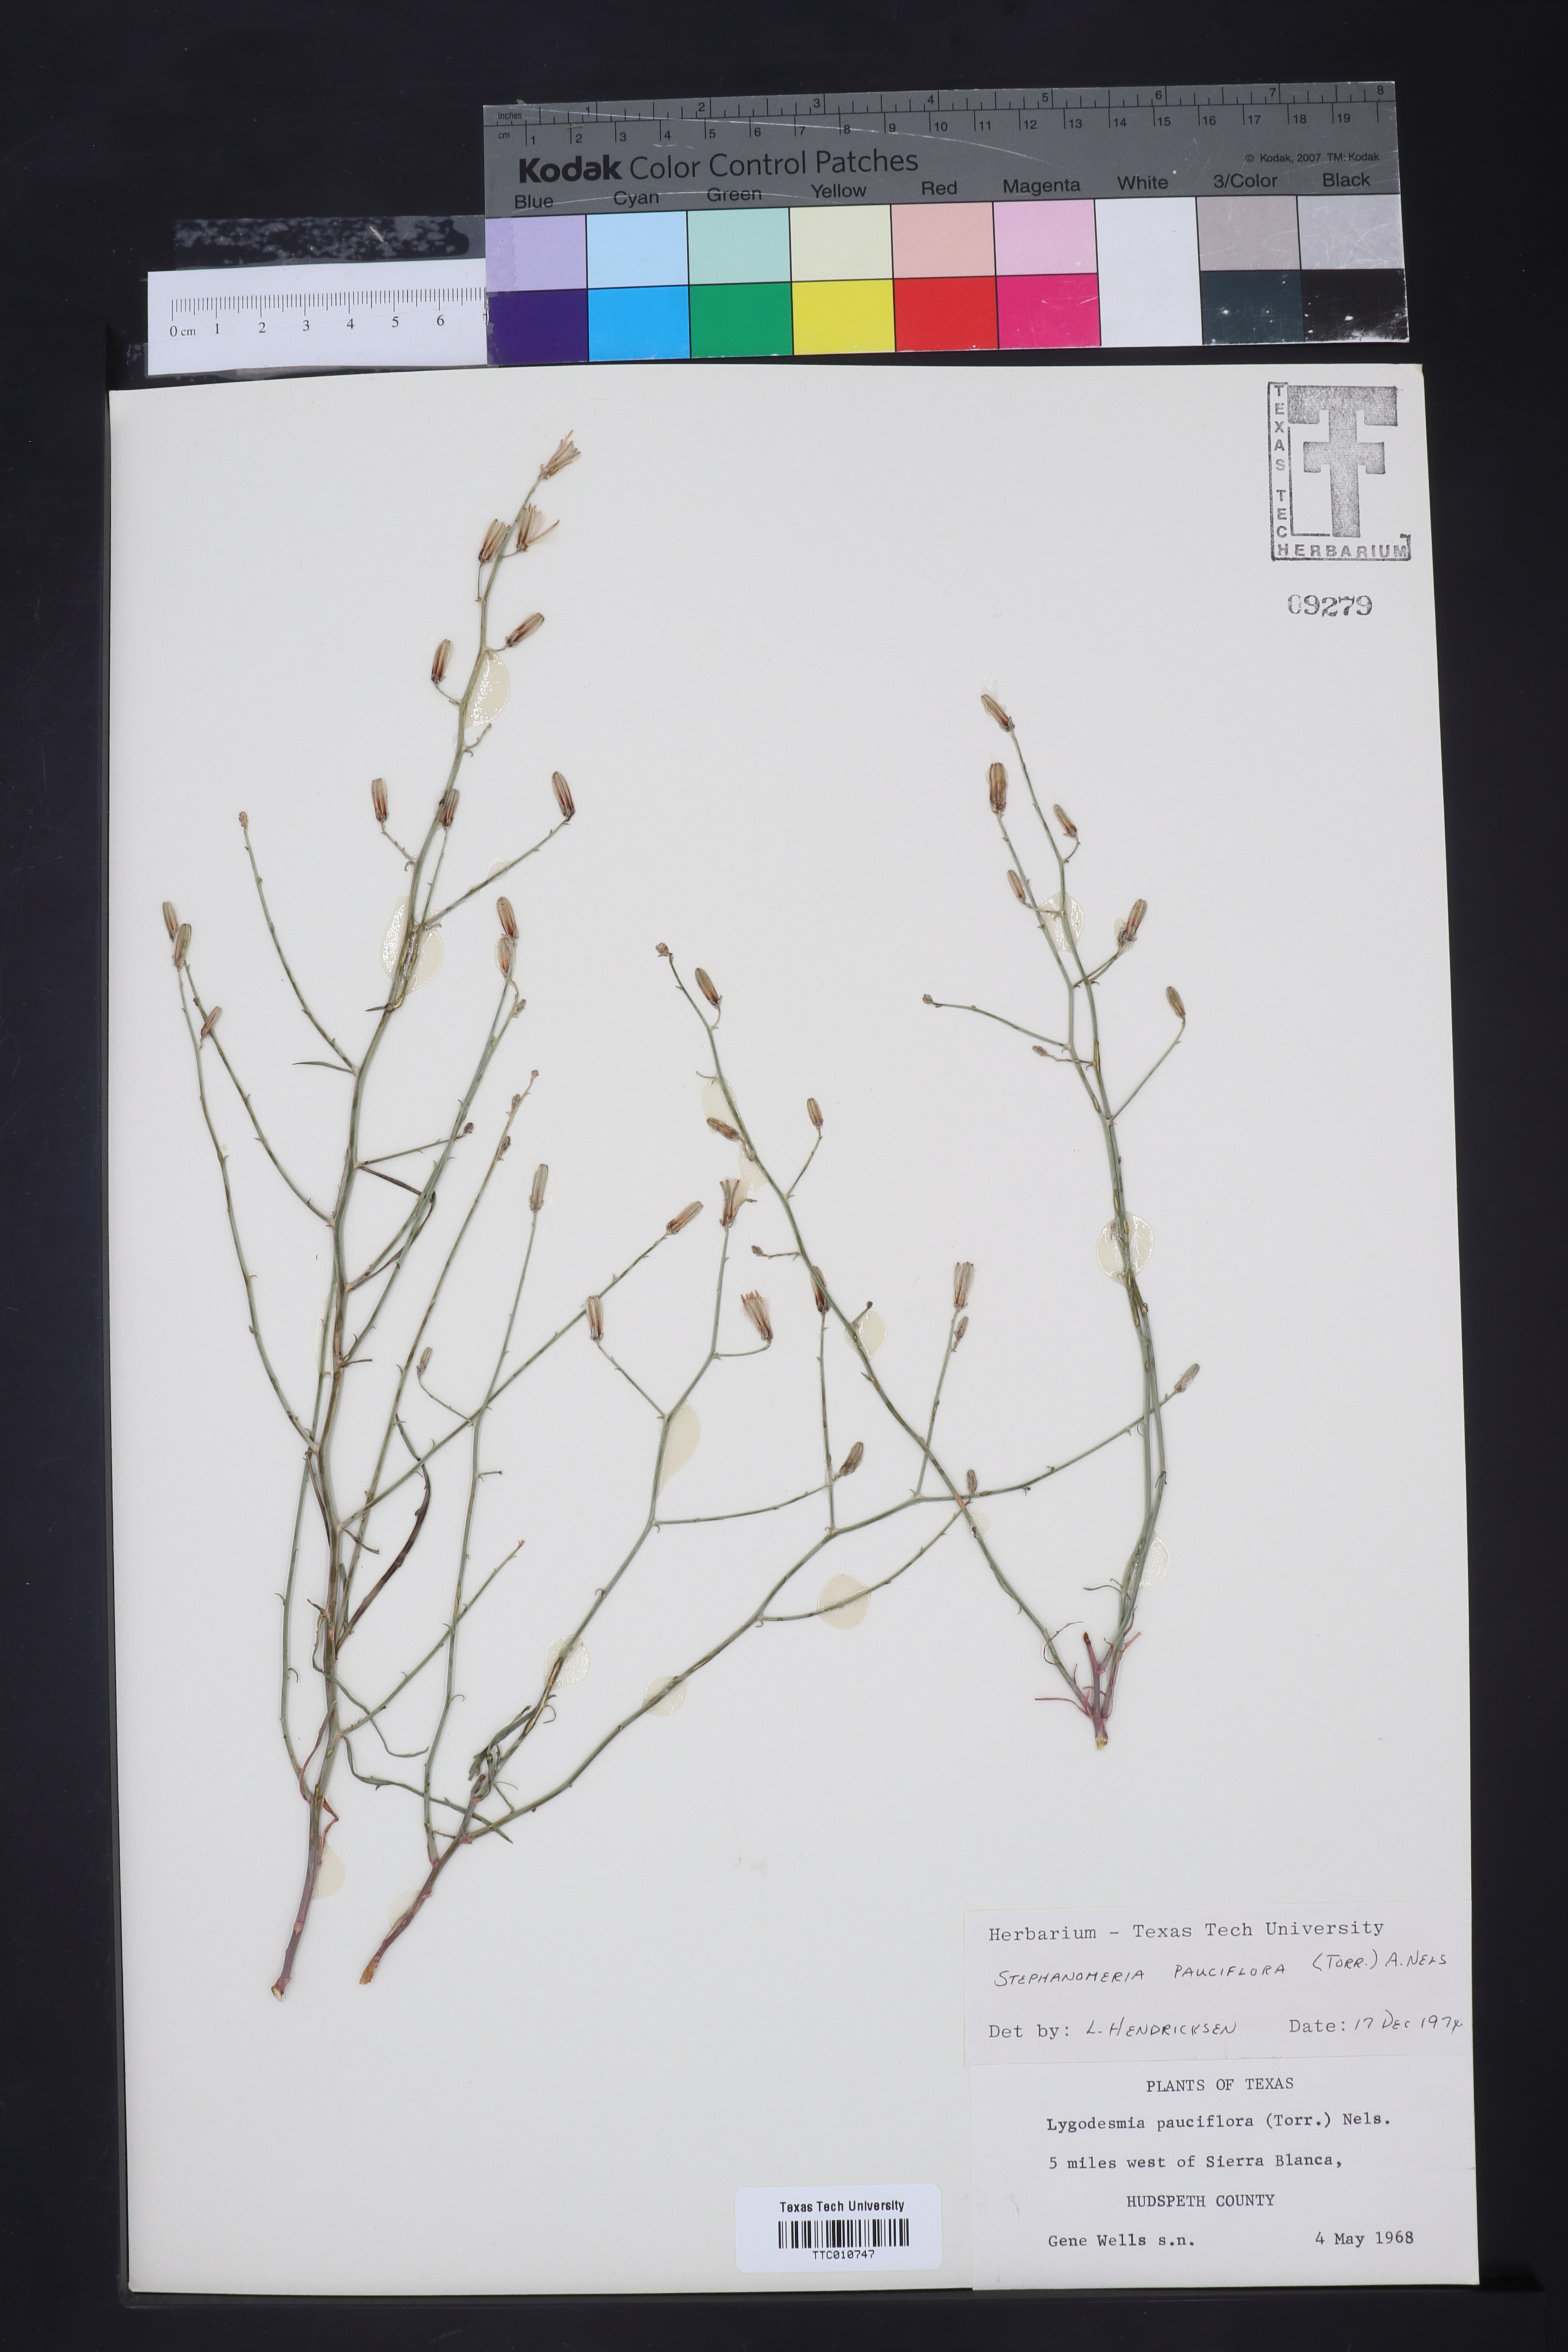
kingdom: Plantae
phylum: Tracheophyta
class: Magnoliopsida
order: Asterales
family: Asteraceae
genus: Stephanomeria
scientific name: Stephanomeria pauciflora
